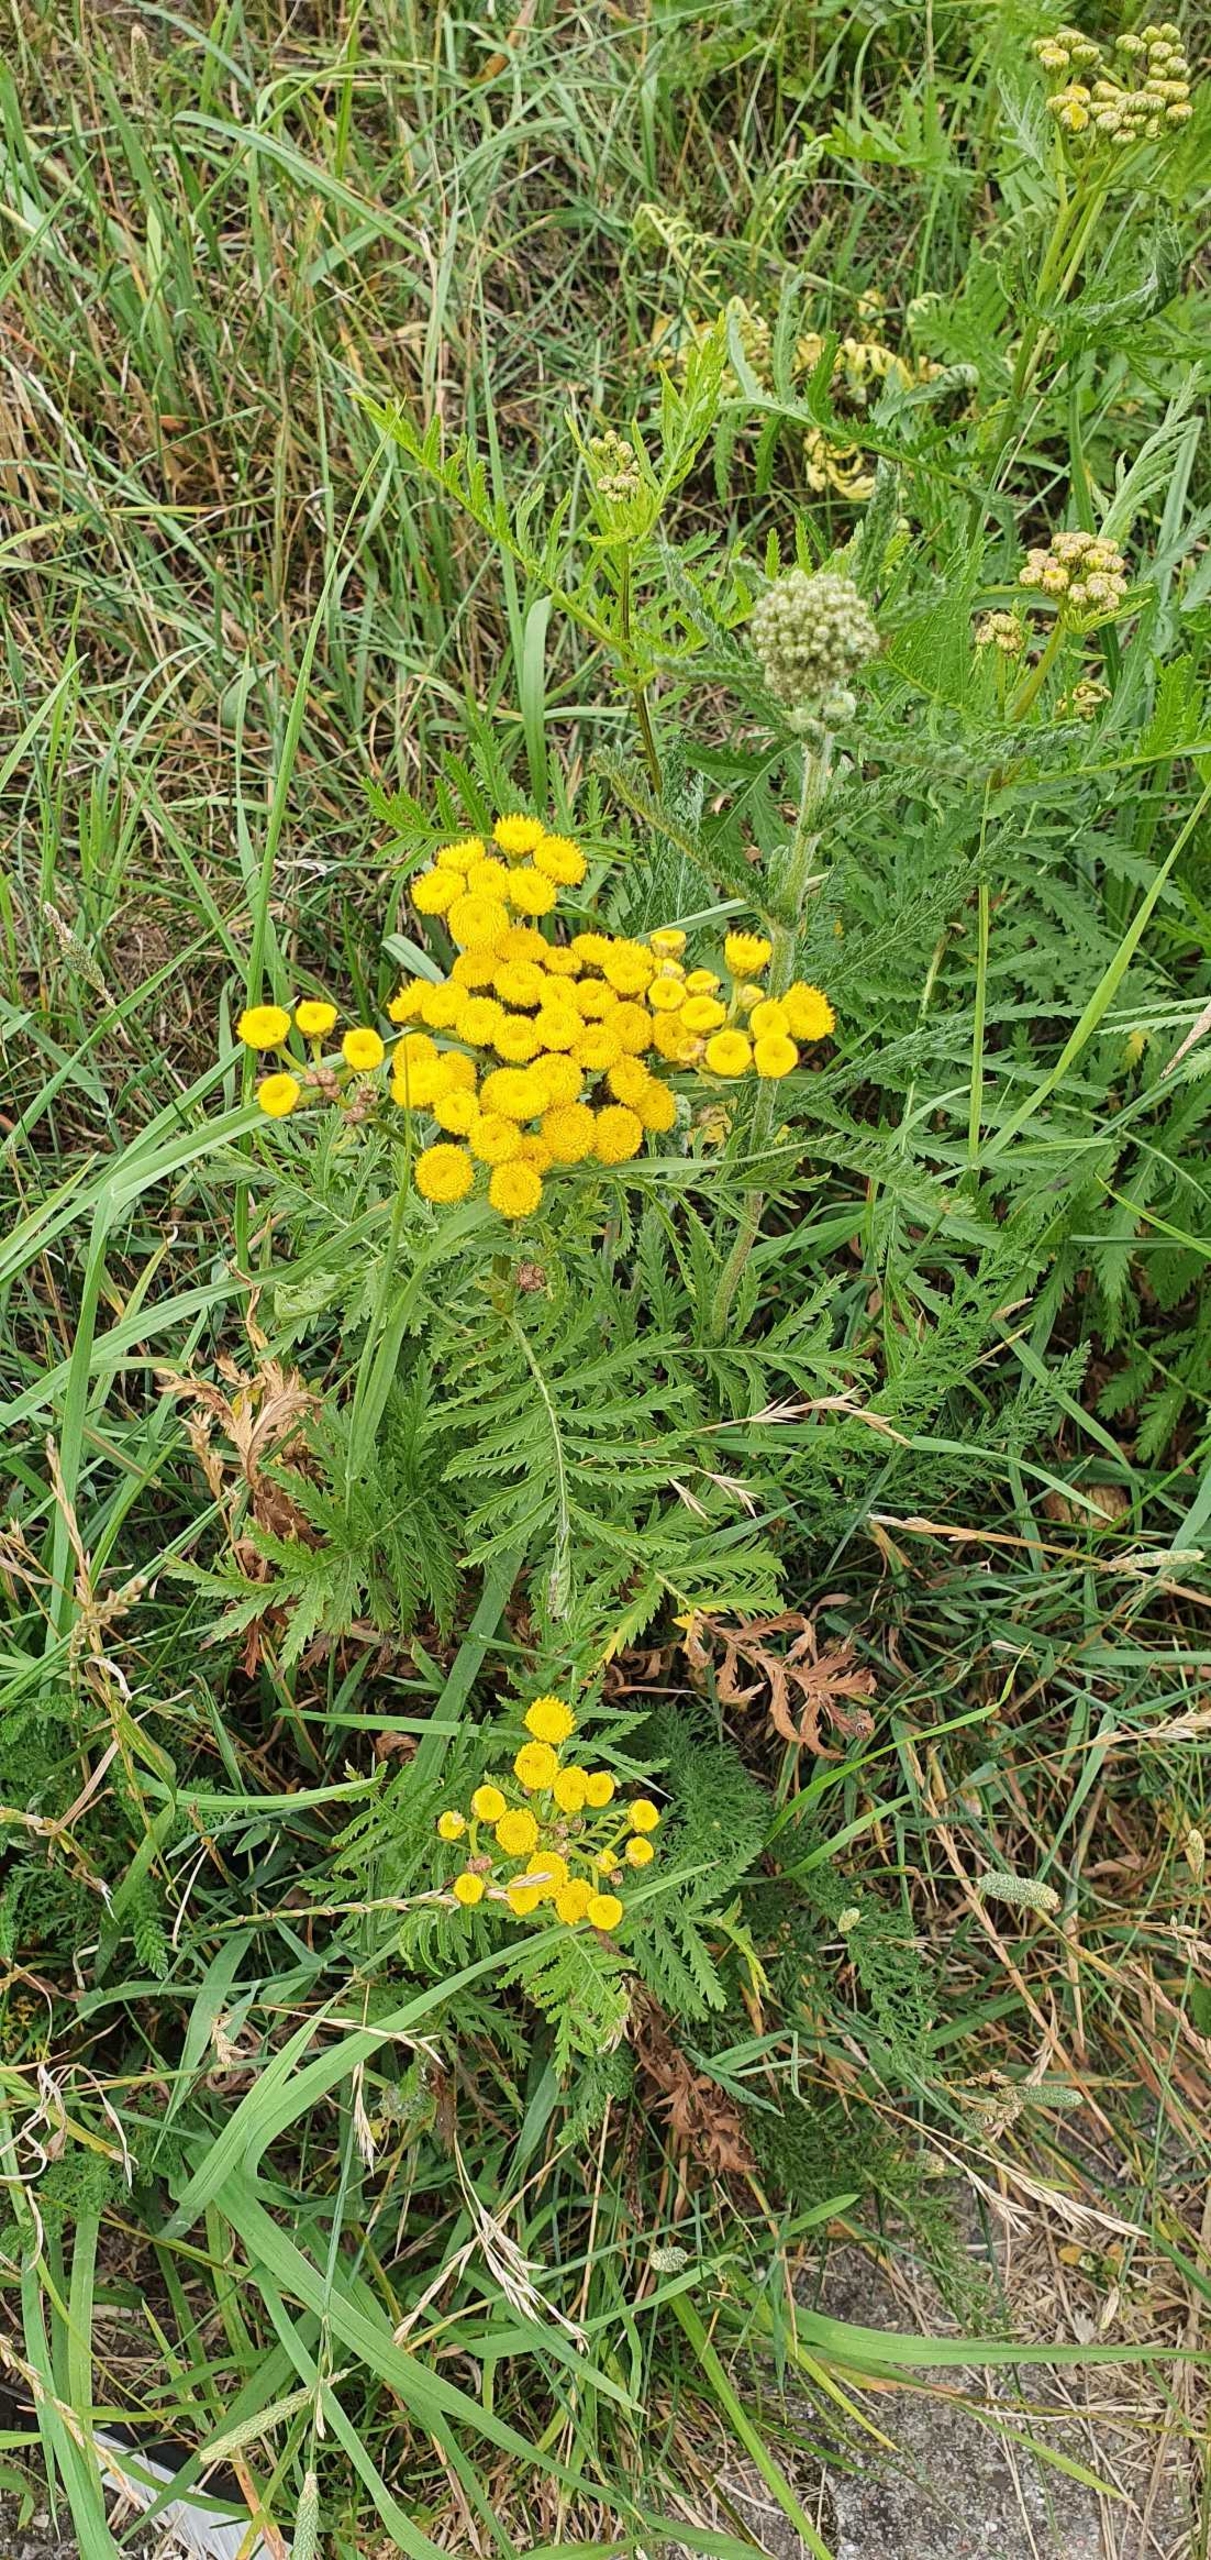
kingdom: Plantae
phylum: Tracheophyta
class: Magnoliopsida
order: Asterales
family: Asteraceae
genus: Tanacetum
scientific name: Tanacetum vulgare
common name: Rejnfan
